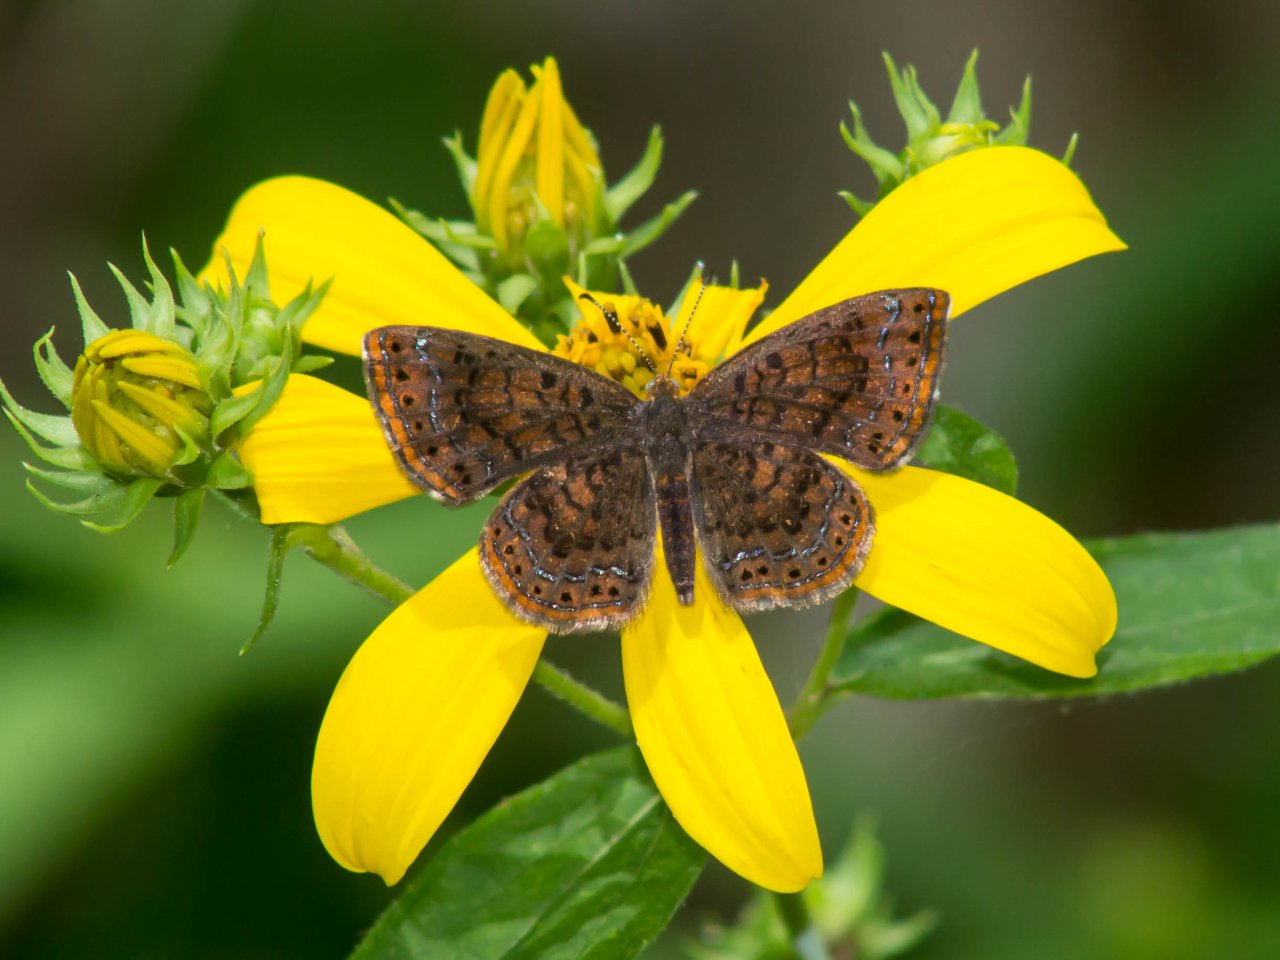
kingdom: Animalia
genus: Calephelis
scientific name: Calephelis borealis
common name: Northern Metalmark
